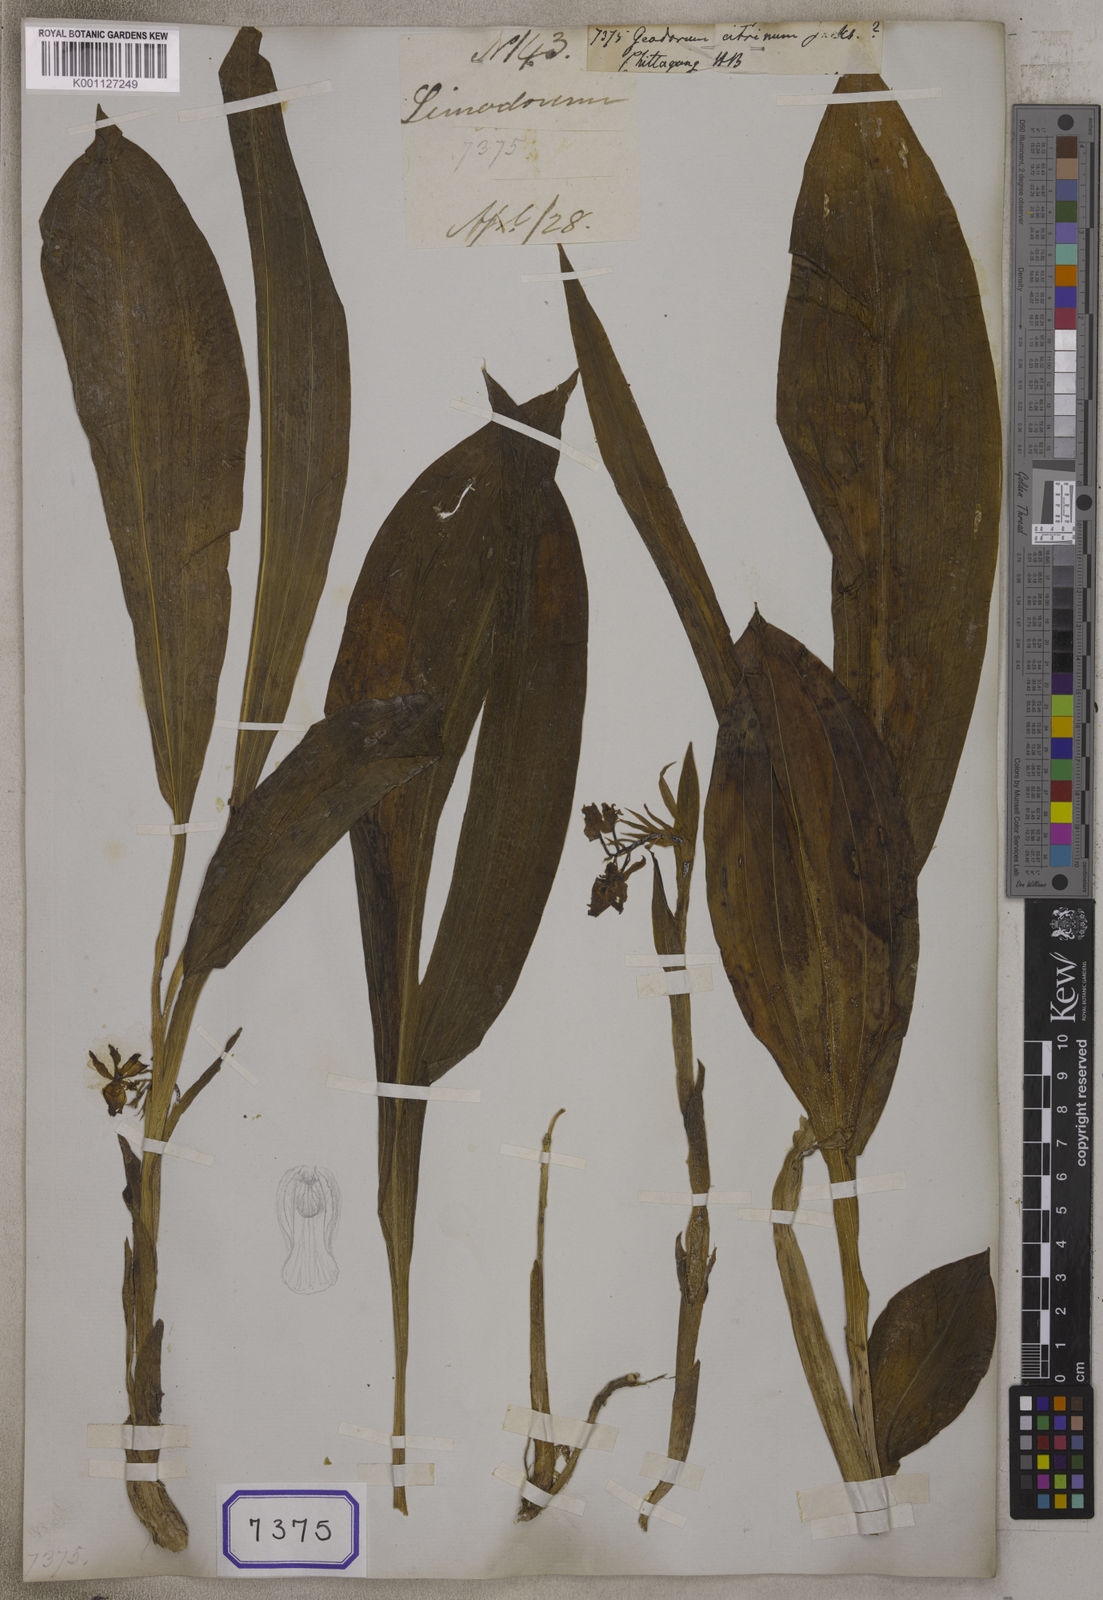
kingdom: Plantae
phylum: Tracheophyta
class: Liliopsida
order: Asparagales
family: Orchidaceae
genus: Geodorum
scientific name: Geodorum
